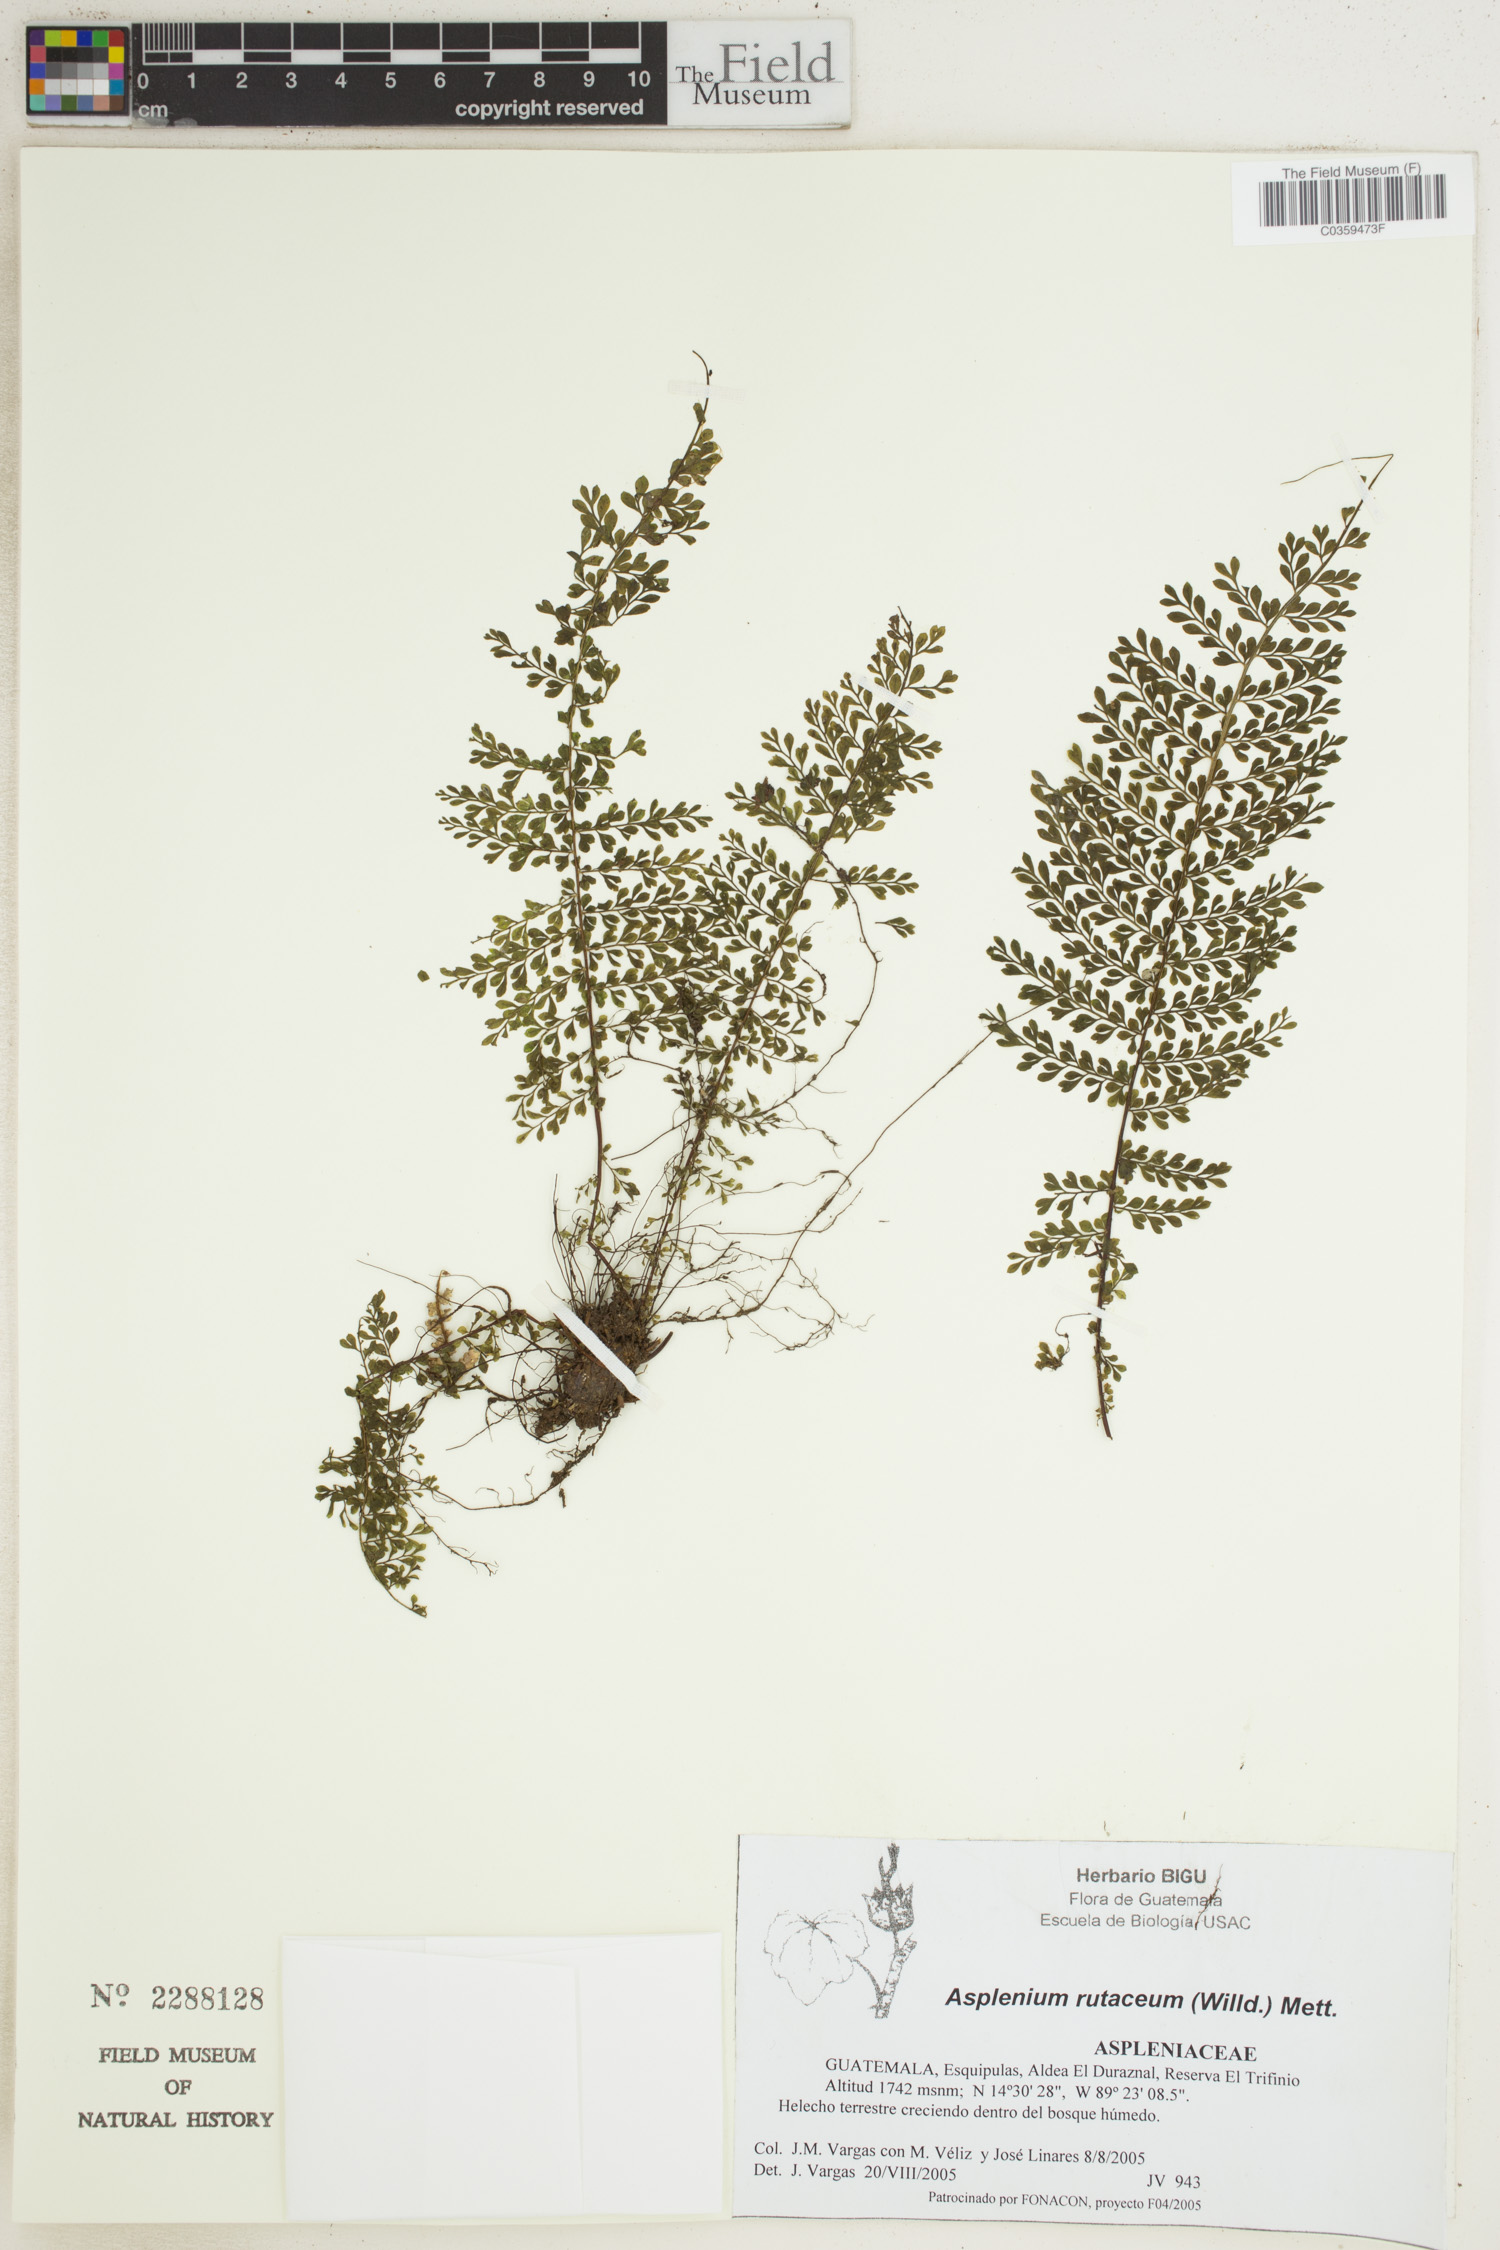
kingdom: Plantae
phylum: Tracheophyta
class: Polypodiopsida
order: Polypodiales
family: Aspleniaceae
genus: Asplenium
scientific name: Asplenium rutaceum
